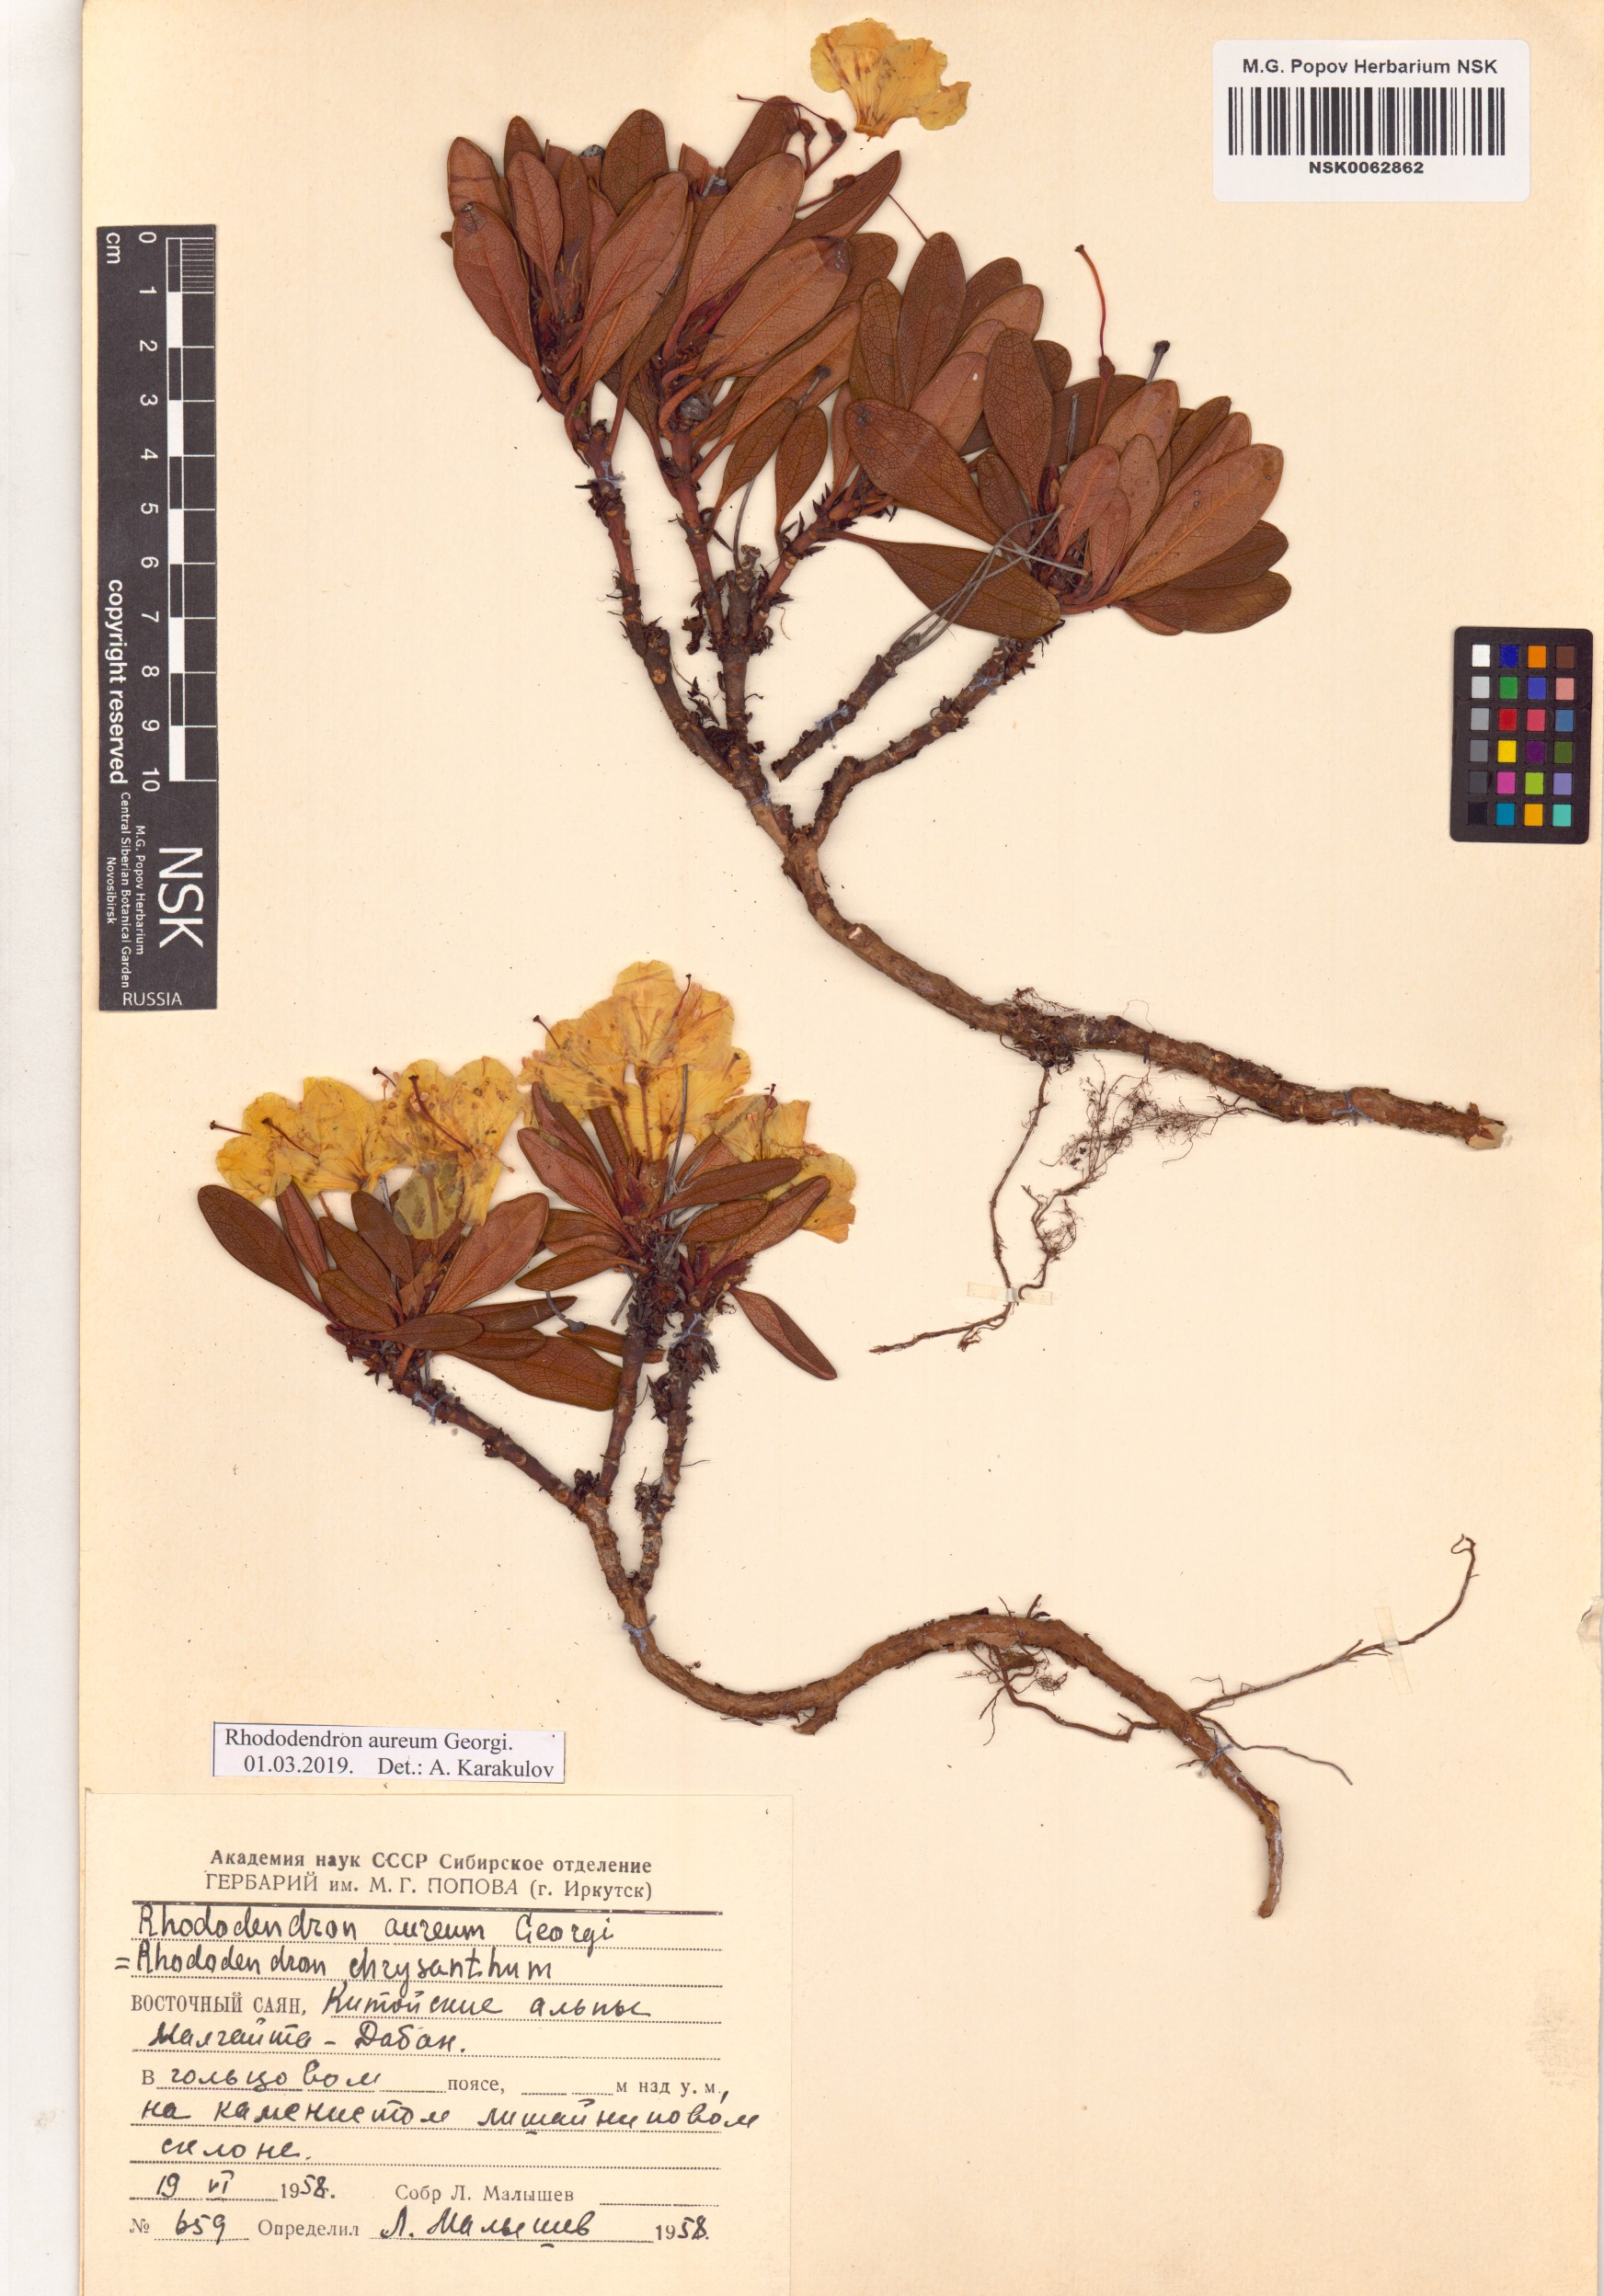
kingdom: Plantae
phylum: Tracheophyta
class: Magnoliopsida
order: Ericales
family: Ericaceae
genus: Rhododendron
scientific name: Rhododendron aureum
